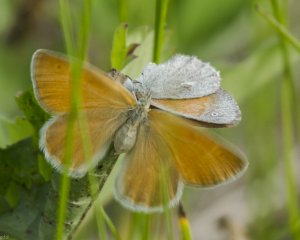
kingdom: Animalia
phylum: Arthropoda
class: Insecta
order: Lepidoptera
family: Nymphalidae
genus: Coenonympha
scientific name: Coenonympha tullia
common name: Large Heath
